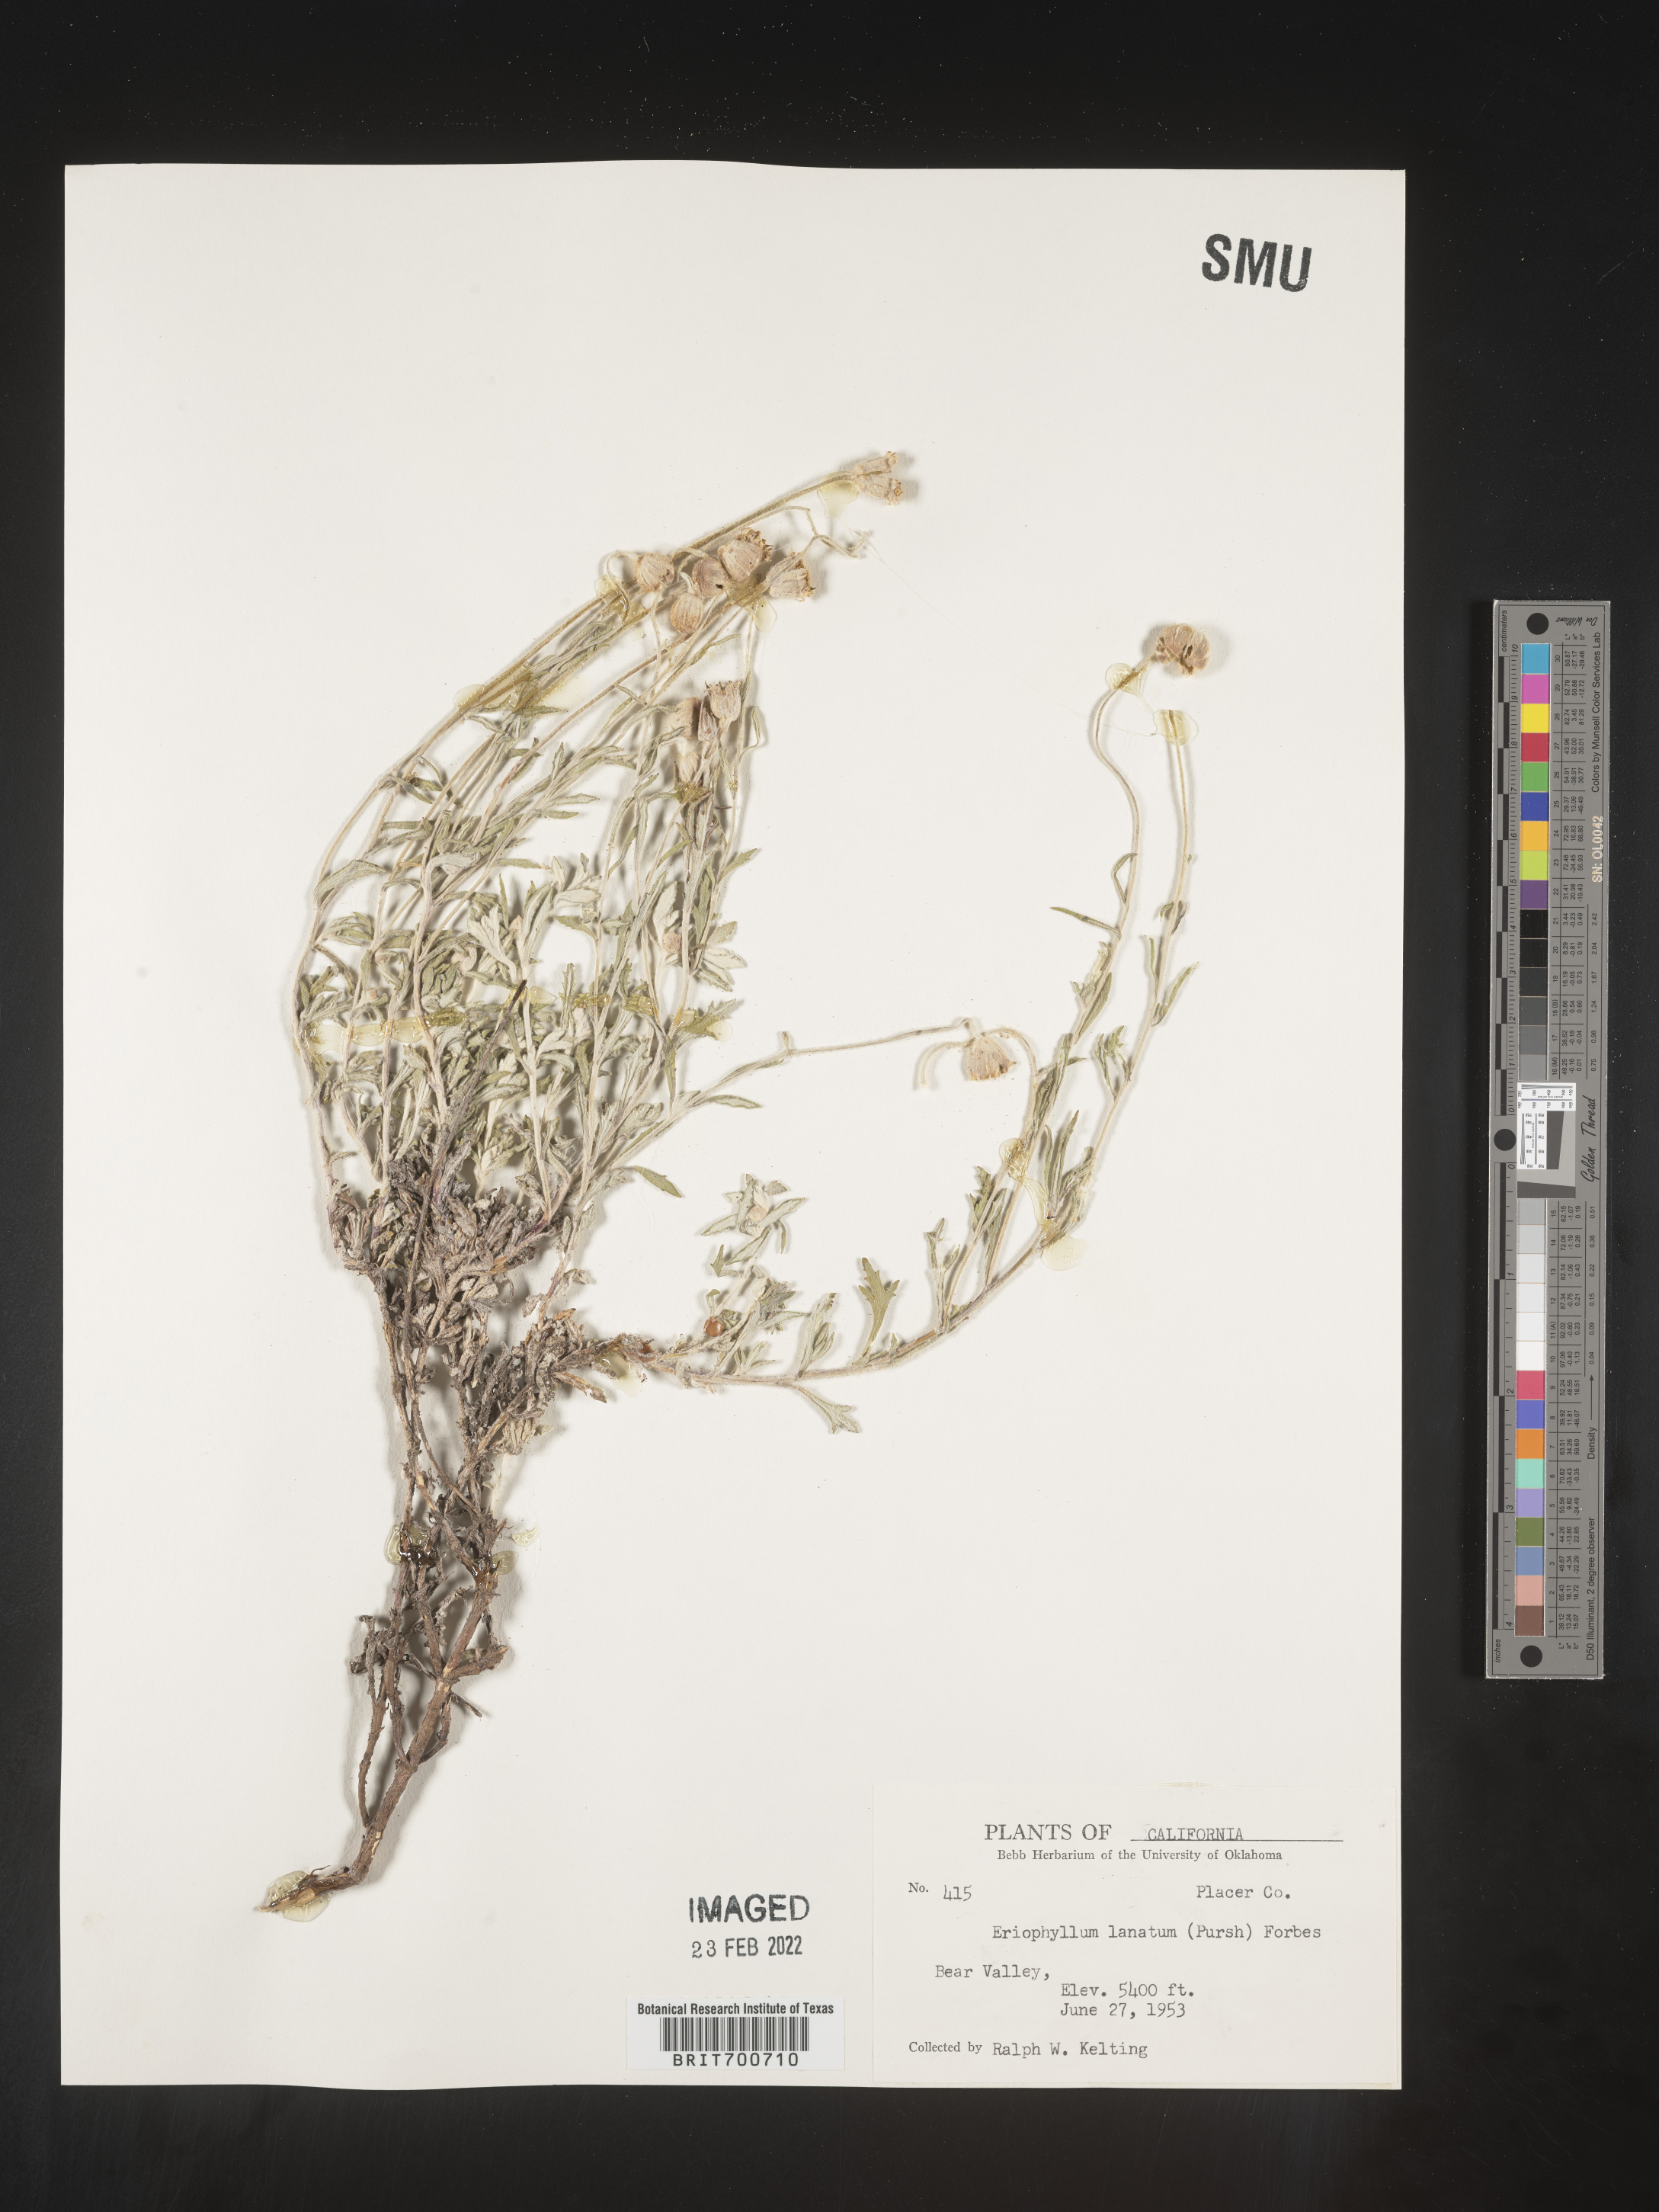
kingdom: Plantae
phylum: Tracheophyta
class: Magnoliopsida
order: Asterales
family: Asteraceae
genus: Eriophyllum
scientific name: Eriophyllum lanatum
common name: Common woolly-sunflower
